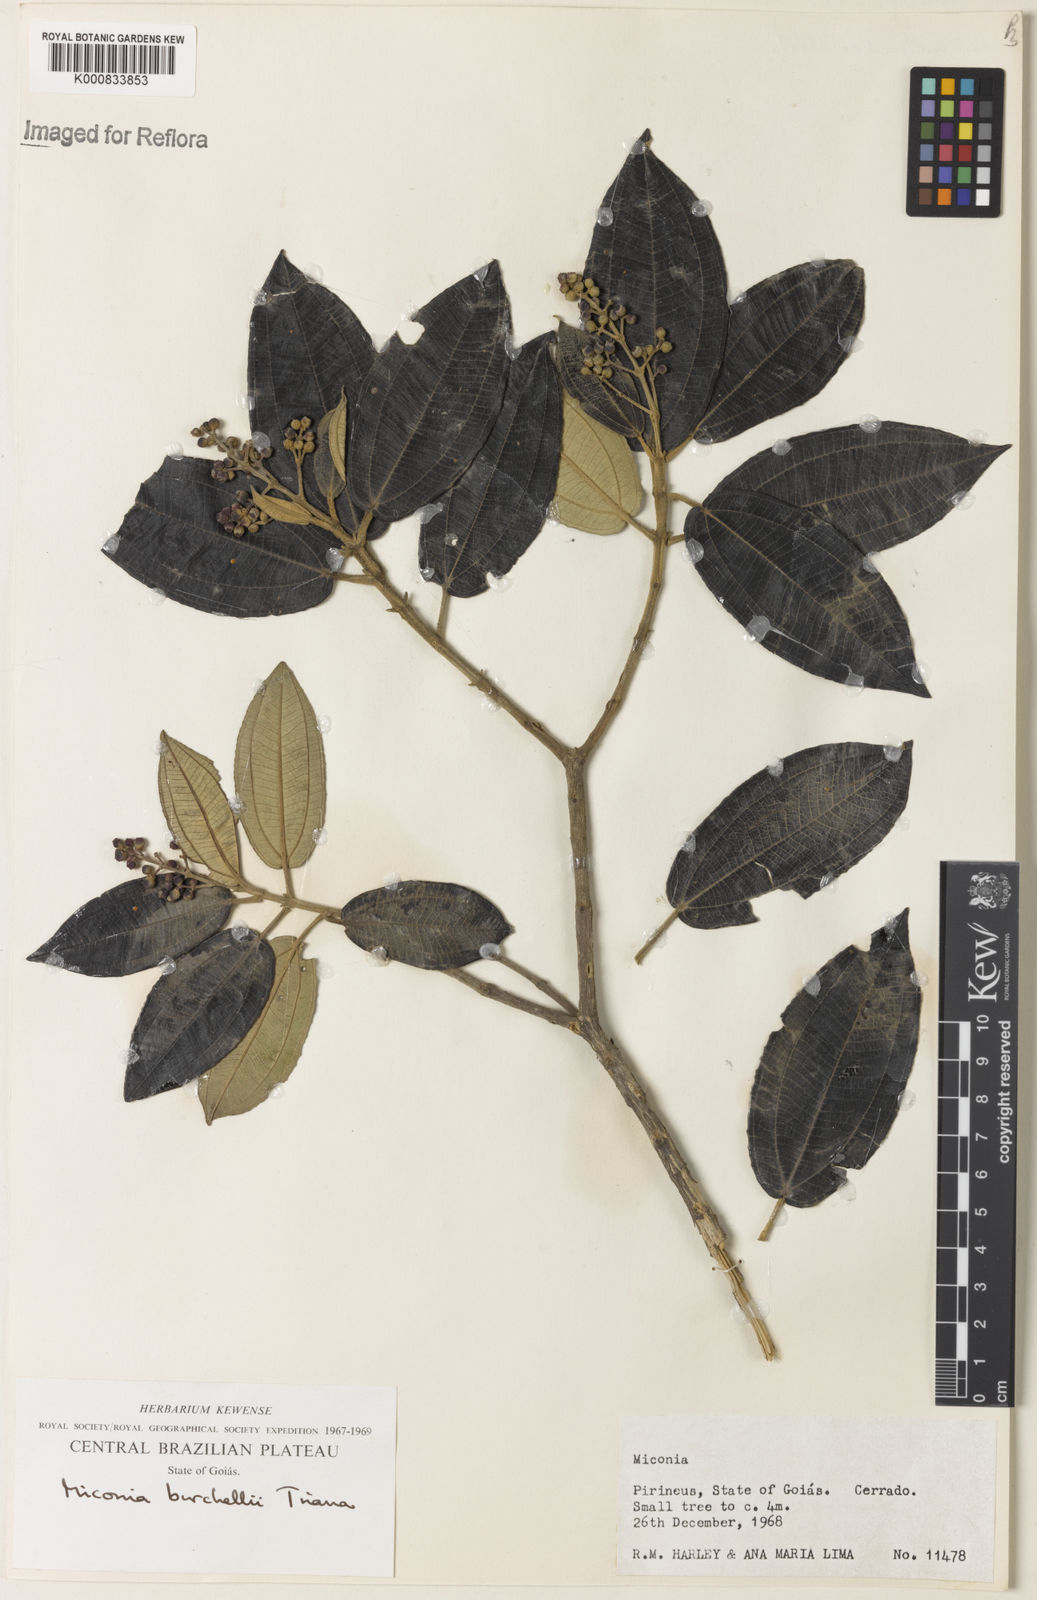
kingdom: Plantae
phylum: Tracheophyta
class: Magnoliopsida
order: Myrtales
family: Melastomataceae
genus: Miconia
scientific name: Miconia burchellii
